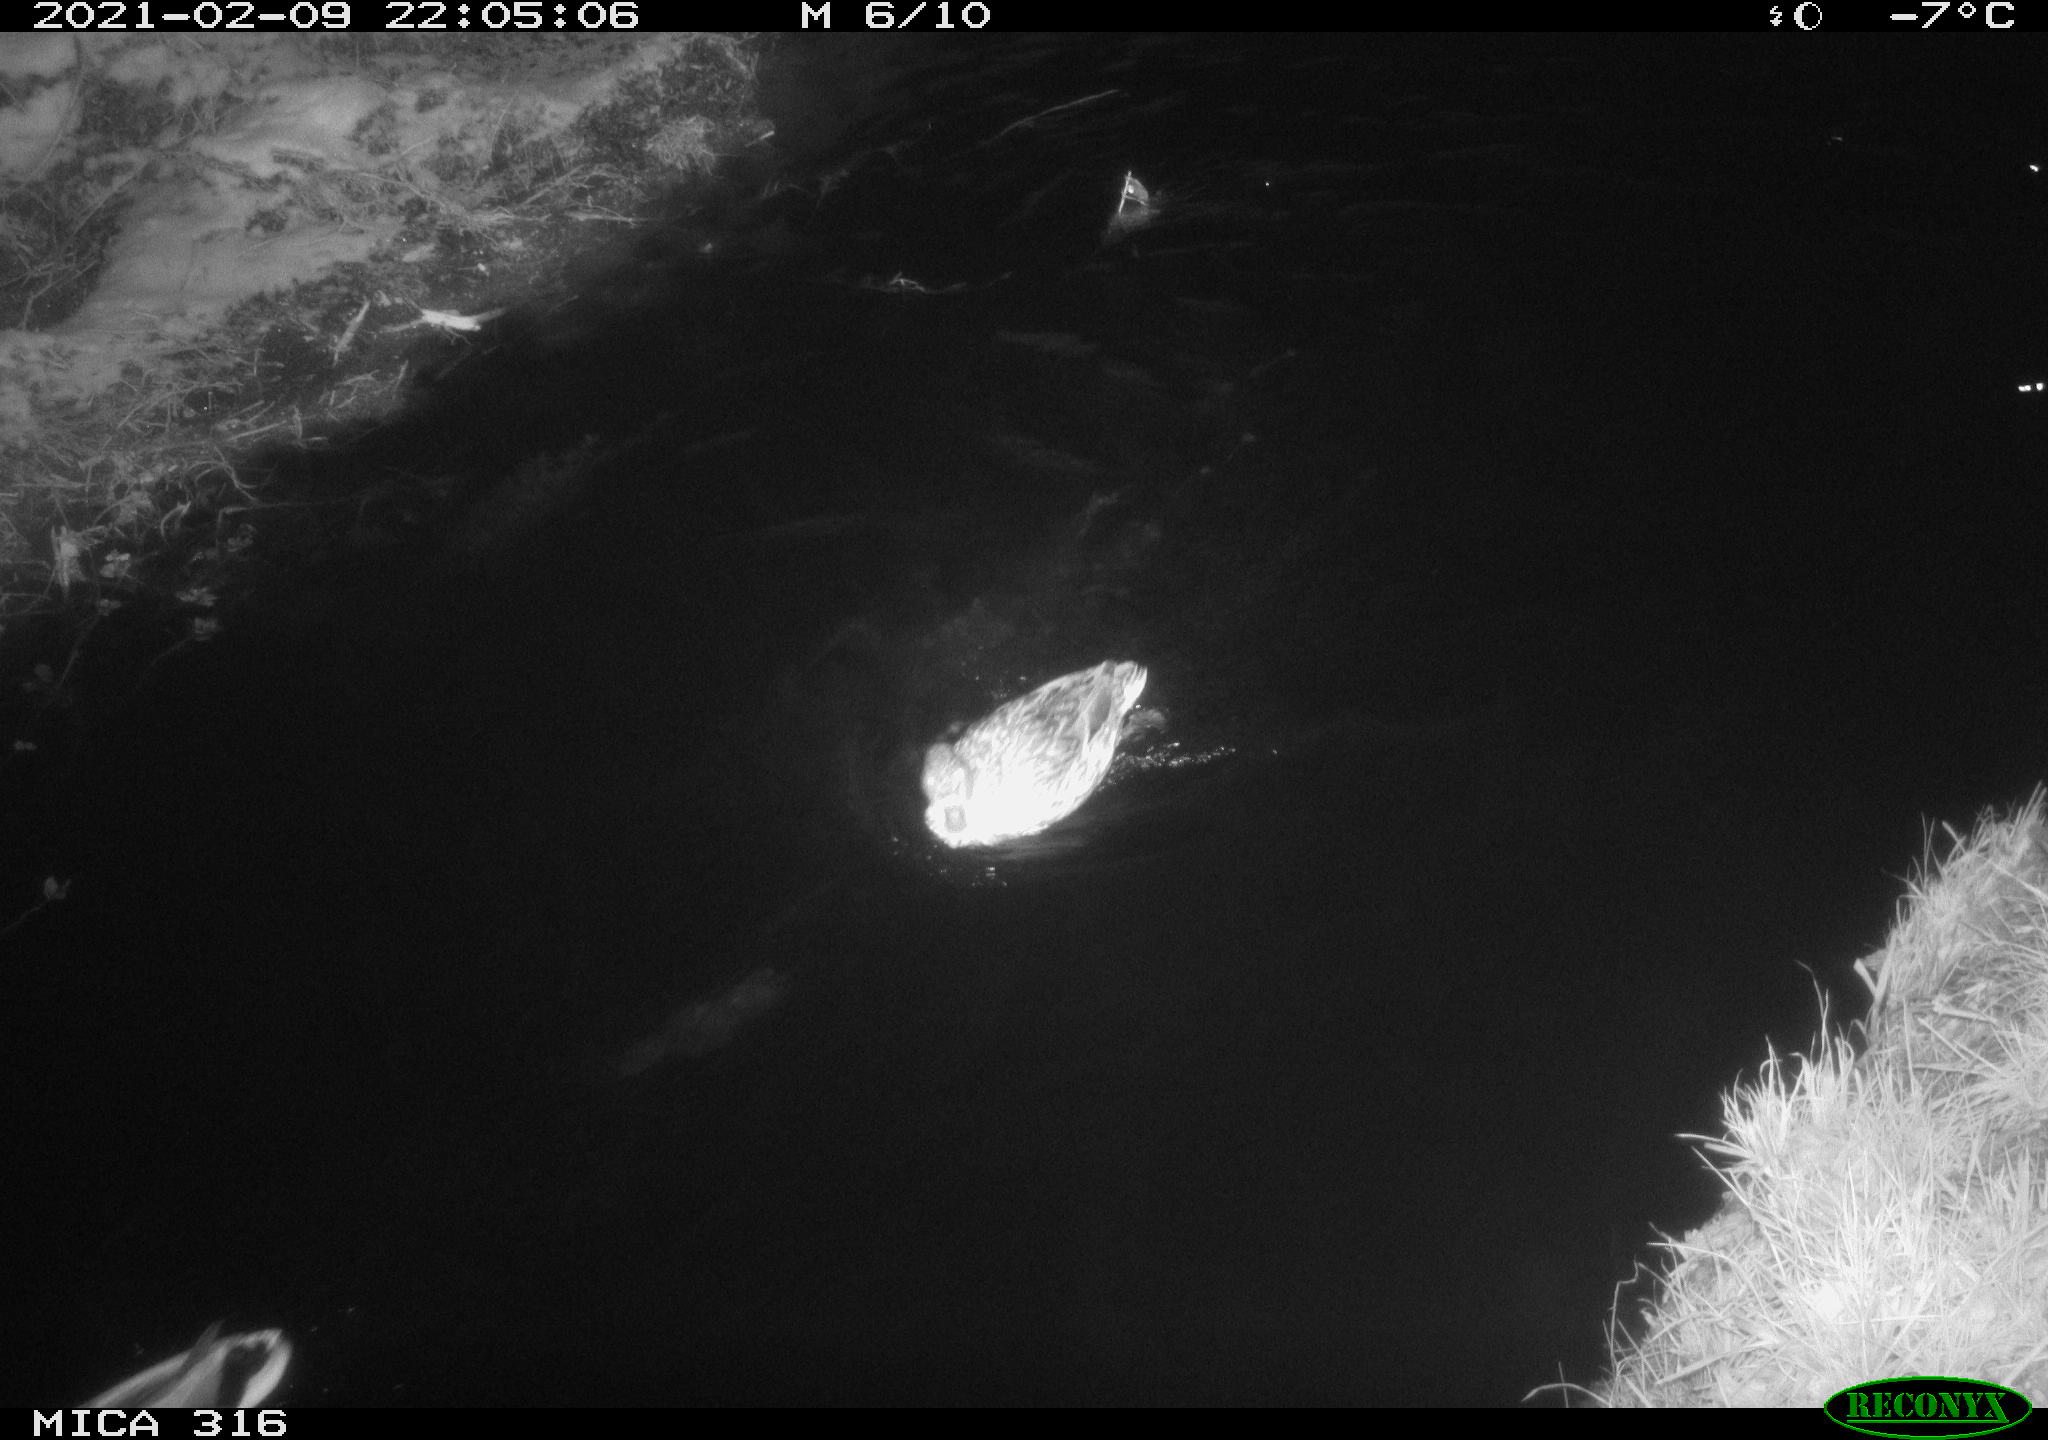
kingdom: Animalia
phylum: Chordata
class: Aves
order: Anseriformes
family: Anatidae
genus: Anas
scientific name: Anas platyrhynchos
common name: Mallard
